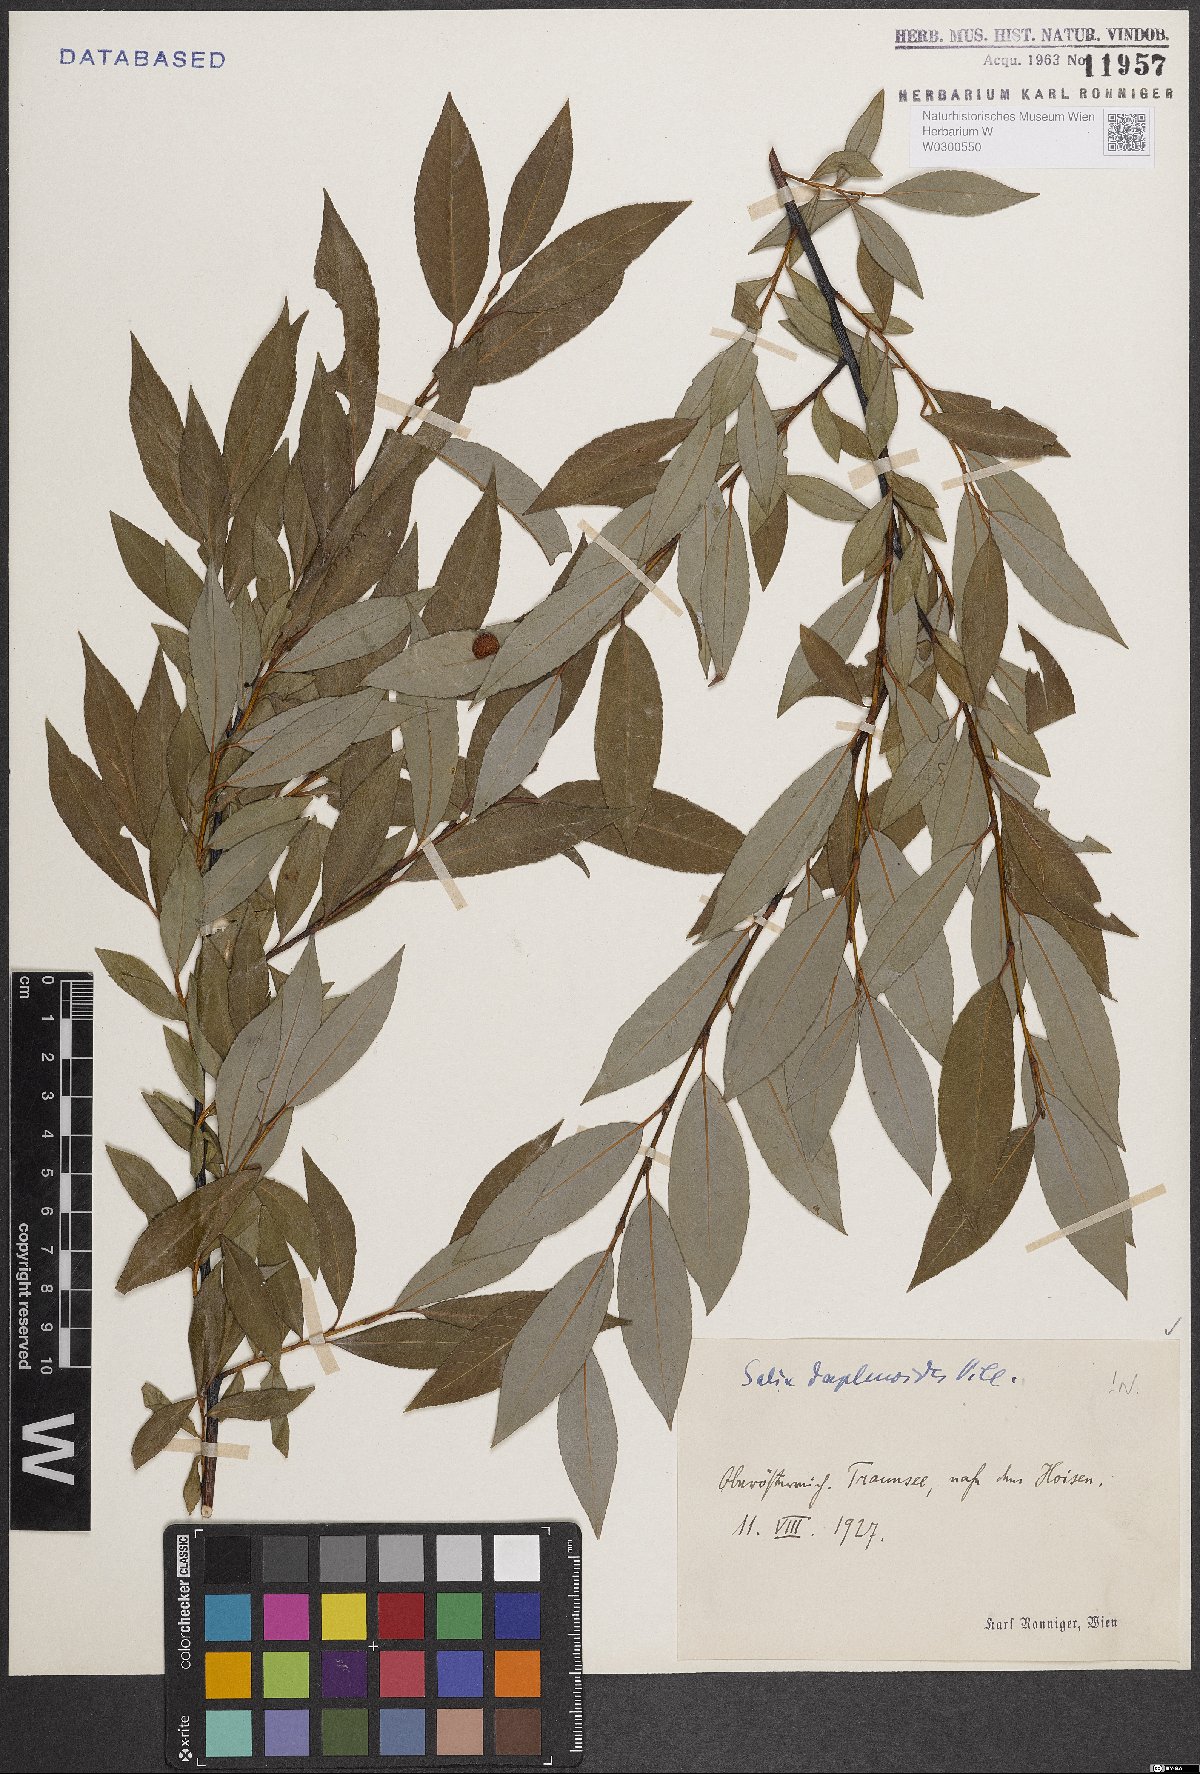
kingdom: Plantae
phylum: Tracheophyta
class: Magnoliopsida
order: Malpighiales
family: Salicaceae
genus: Salix
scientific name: Salix daphnoides
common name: European violet-willow
